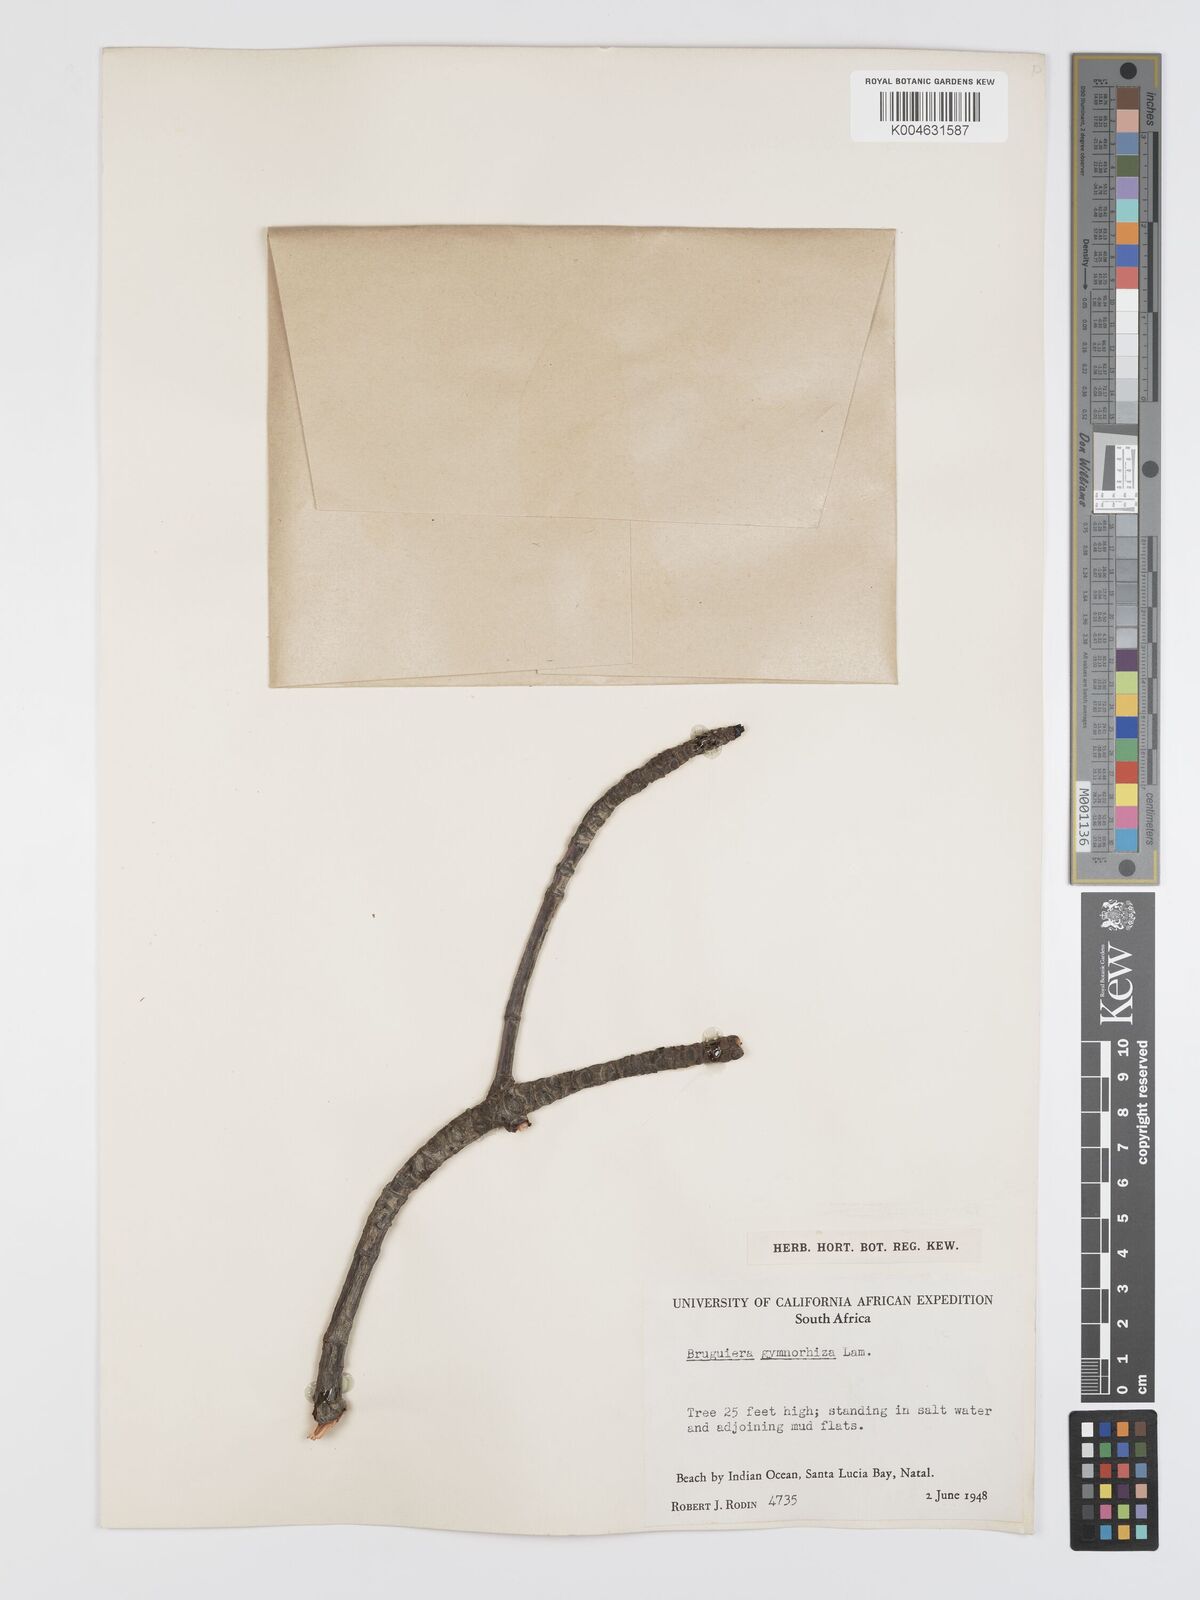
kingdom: Plantae
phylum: Tracheophyta
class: Magnoliopsida
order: Malpighiales
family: Rhizophoraceae
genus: Bruguiera
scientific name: Bruguiera
